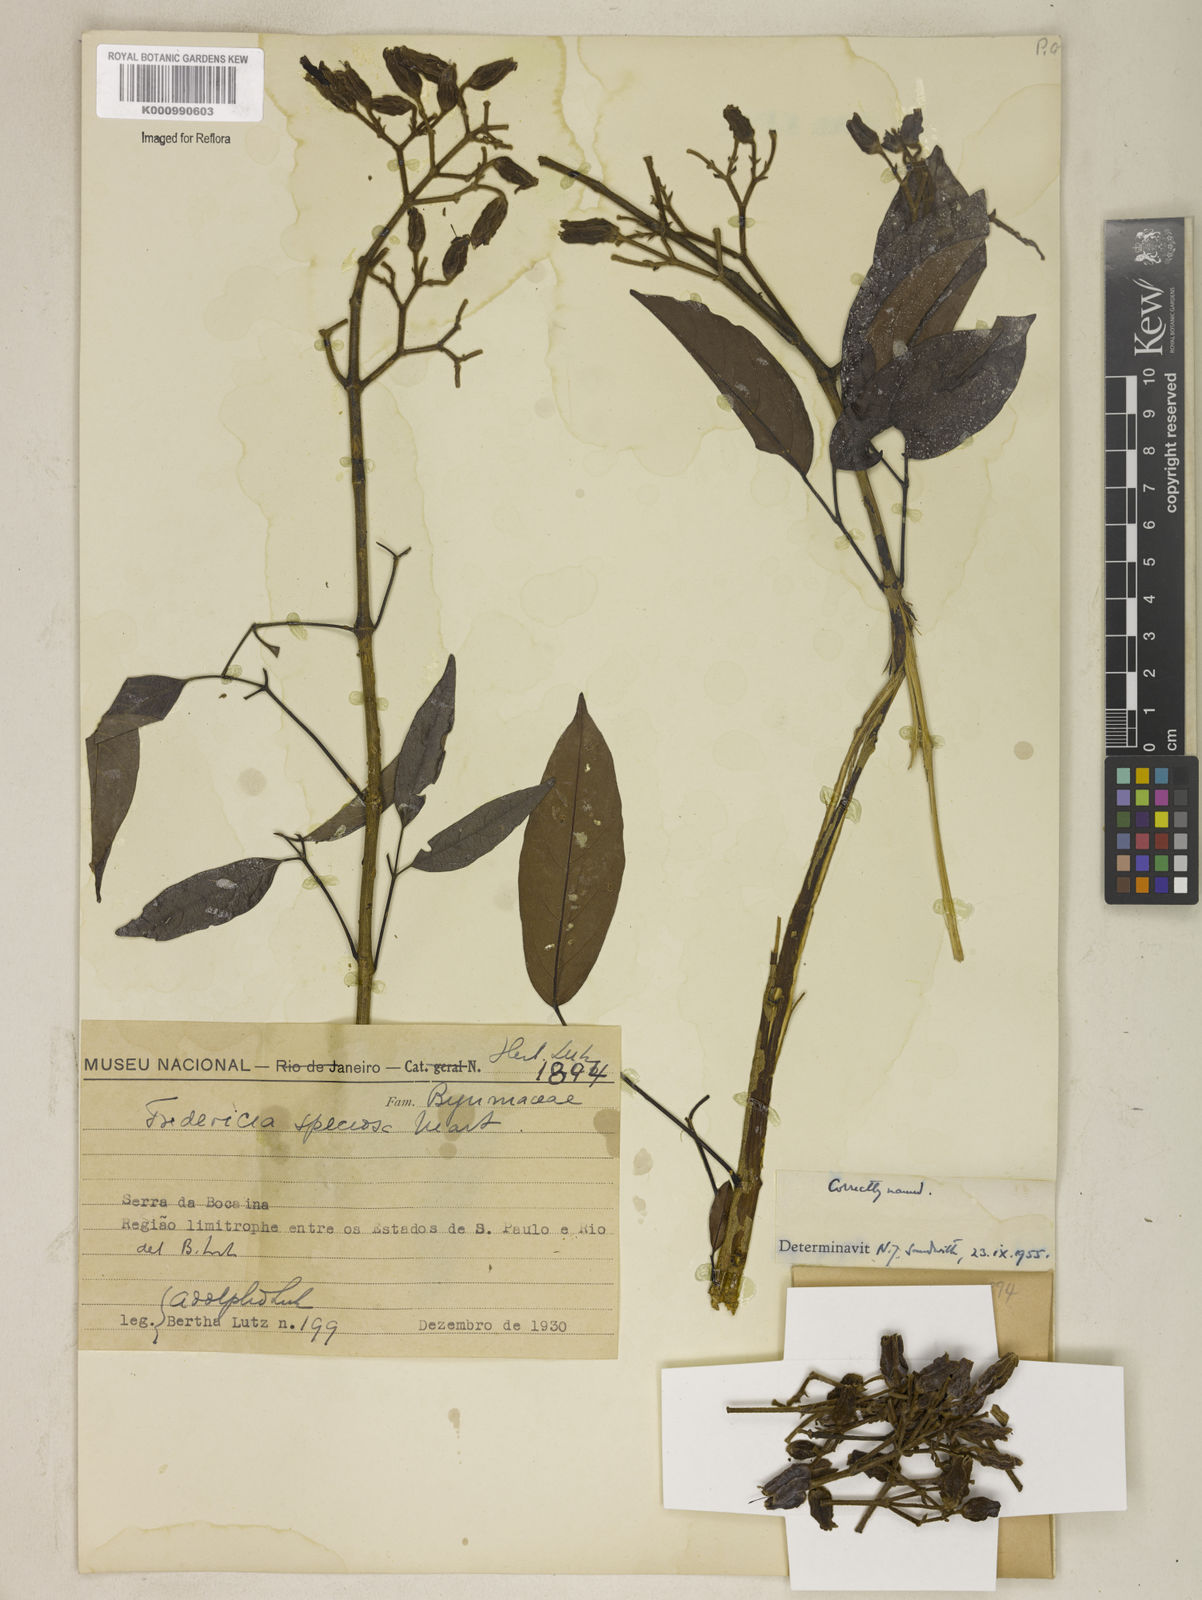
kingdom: Plantae
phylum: Tracheophyta
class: Magnoliopsida
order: Lamiales
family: Bignoniaceae
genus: Fridericia
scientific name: Fridericia speciosa
